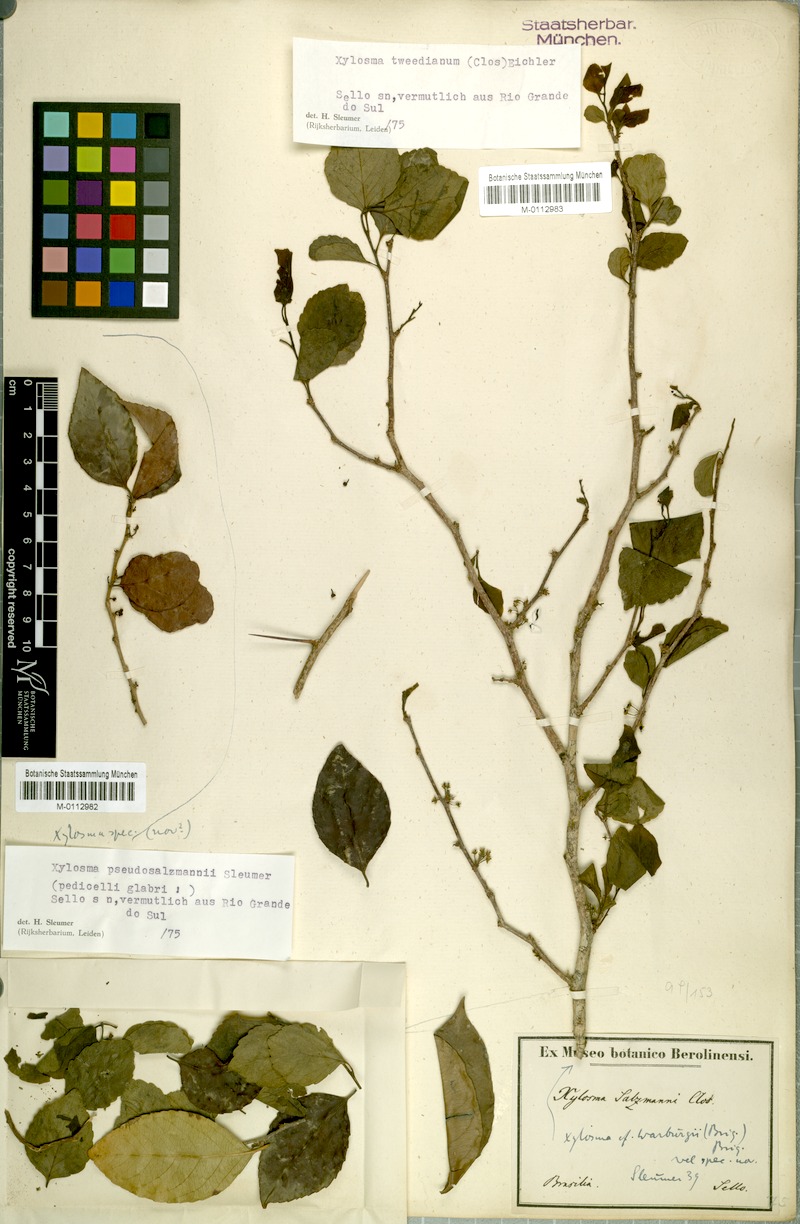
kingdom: Plantae
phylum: Tracheophyta
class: Magnoliopsida
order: Malpighiales
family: Salicaceae
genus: Xylosma
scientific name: Xylosma pseudosalzmannii
